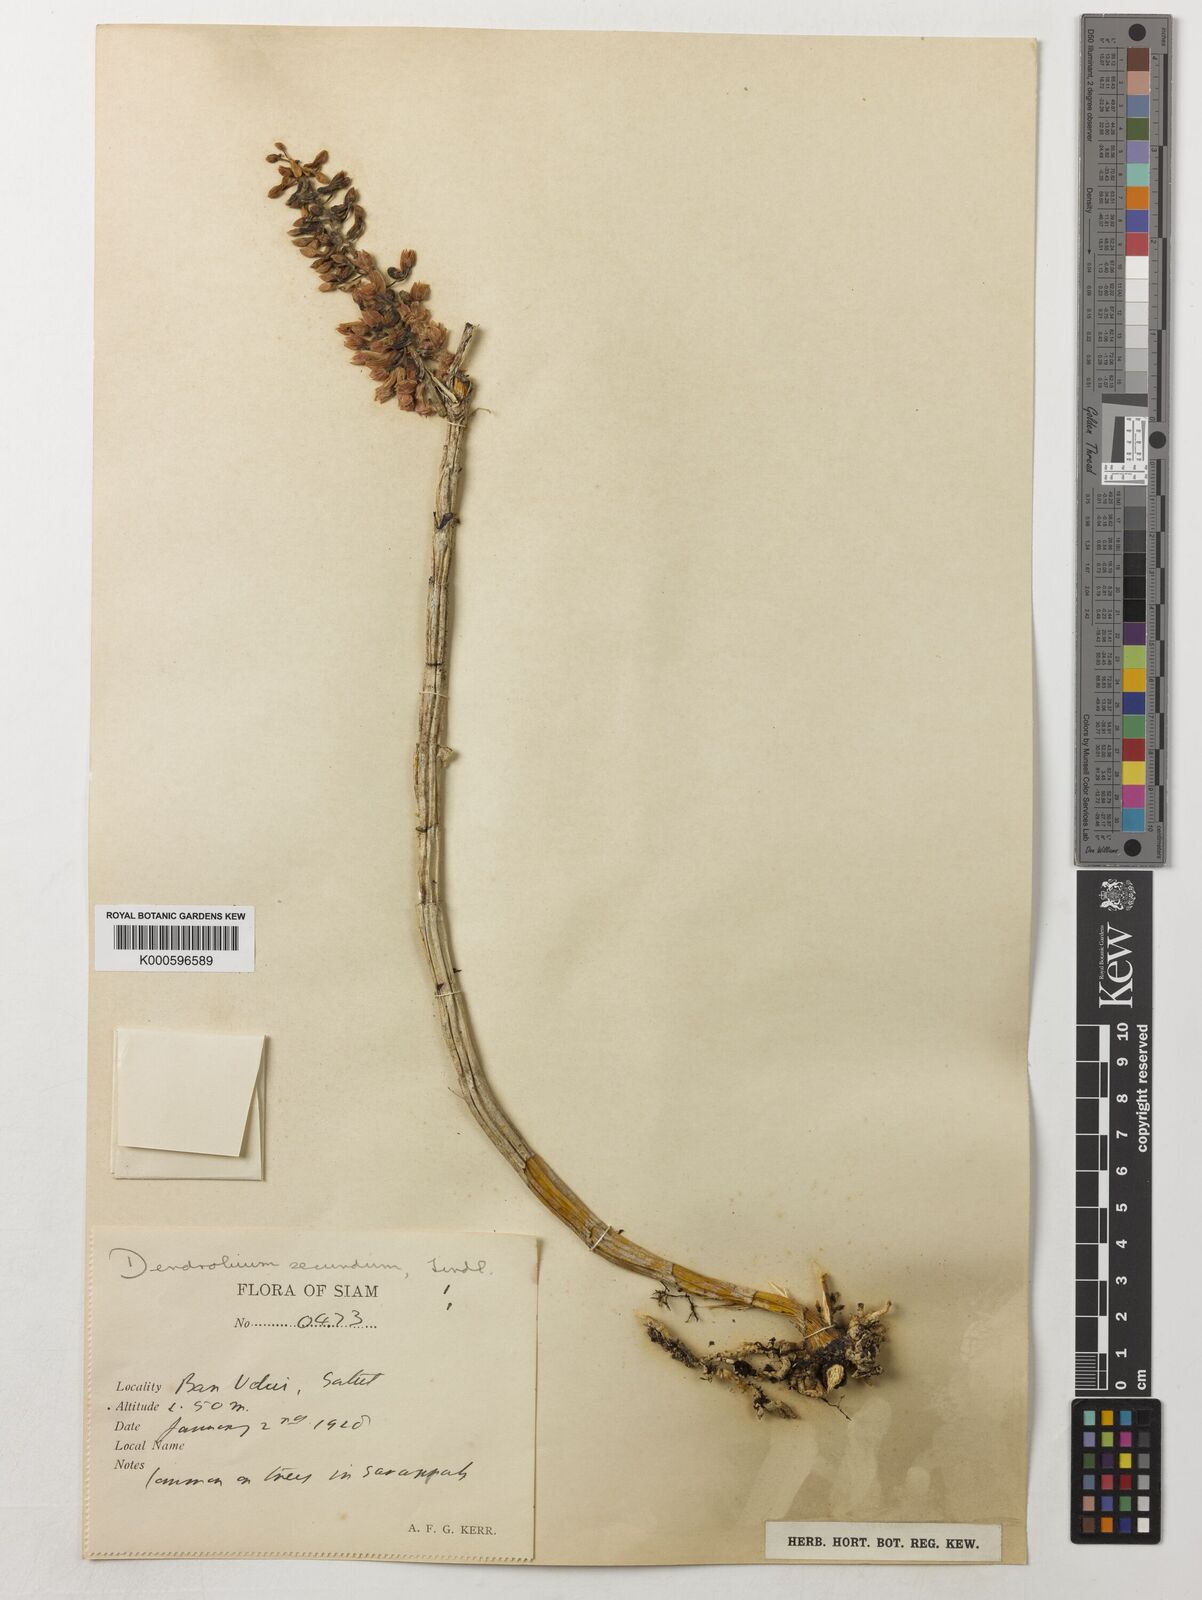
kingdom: Plantae
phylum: Tracheophyta
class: Liliopsida
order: Asparagales
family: Orchidaceae
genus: Dendrobium
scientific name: Dendrobium
